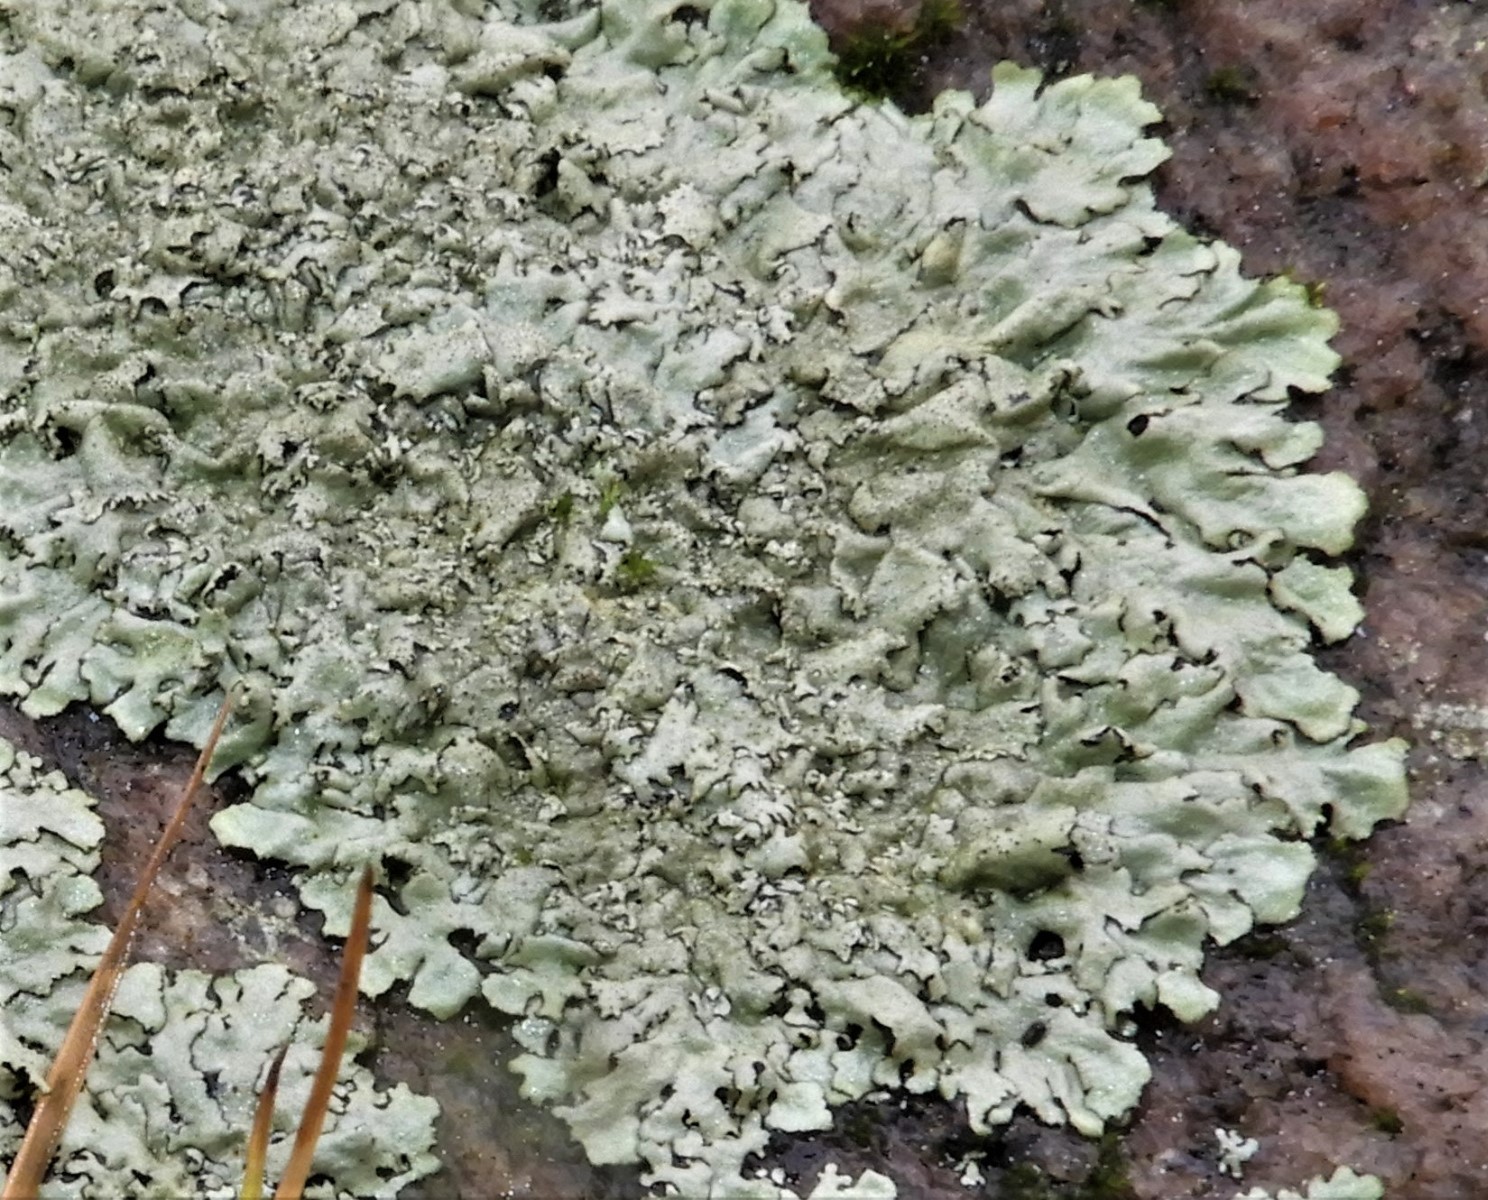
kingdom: Fungi
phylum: Ascomycota
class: Lecanoromycetes
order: Lecanorales
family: Parmeliaceae
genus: Xanthoparmelia
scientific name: Xanthoparmelia
